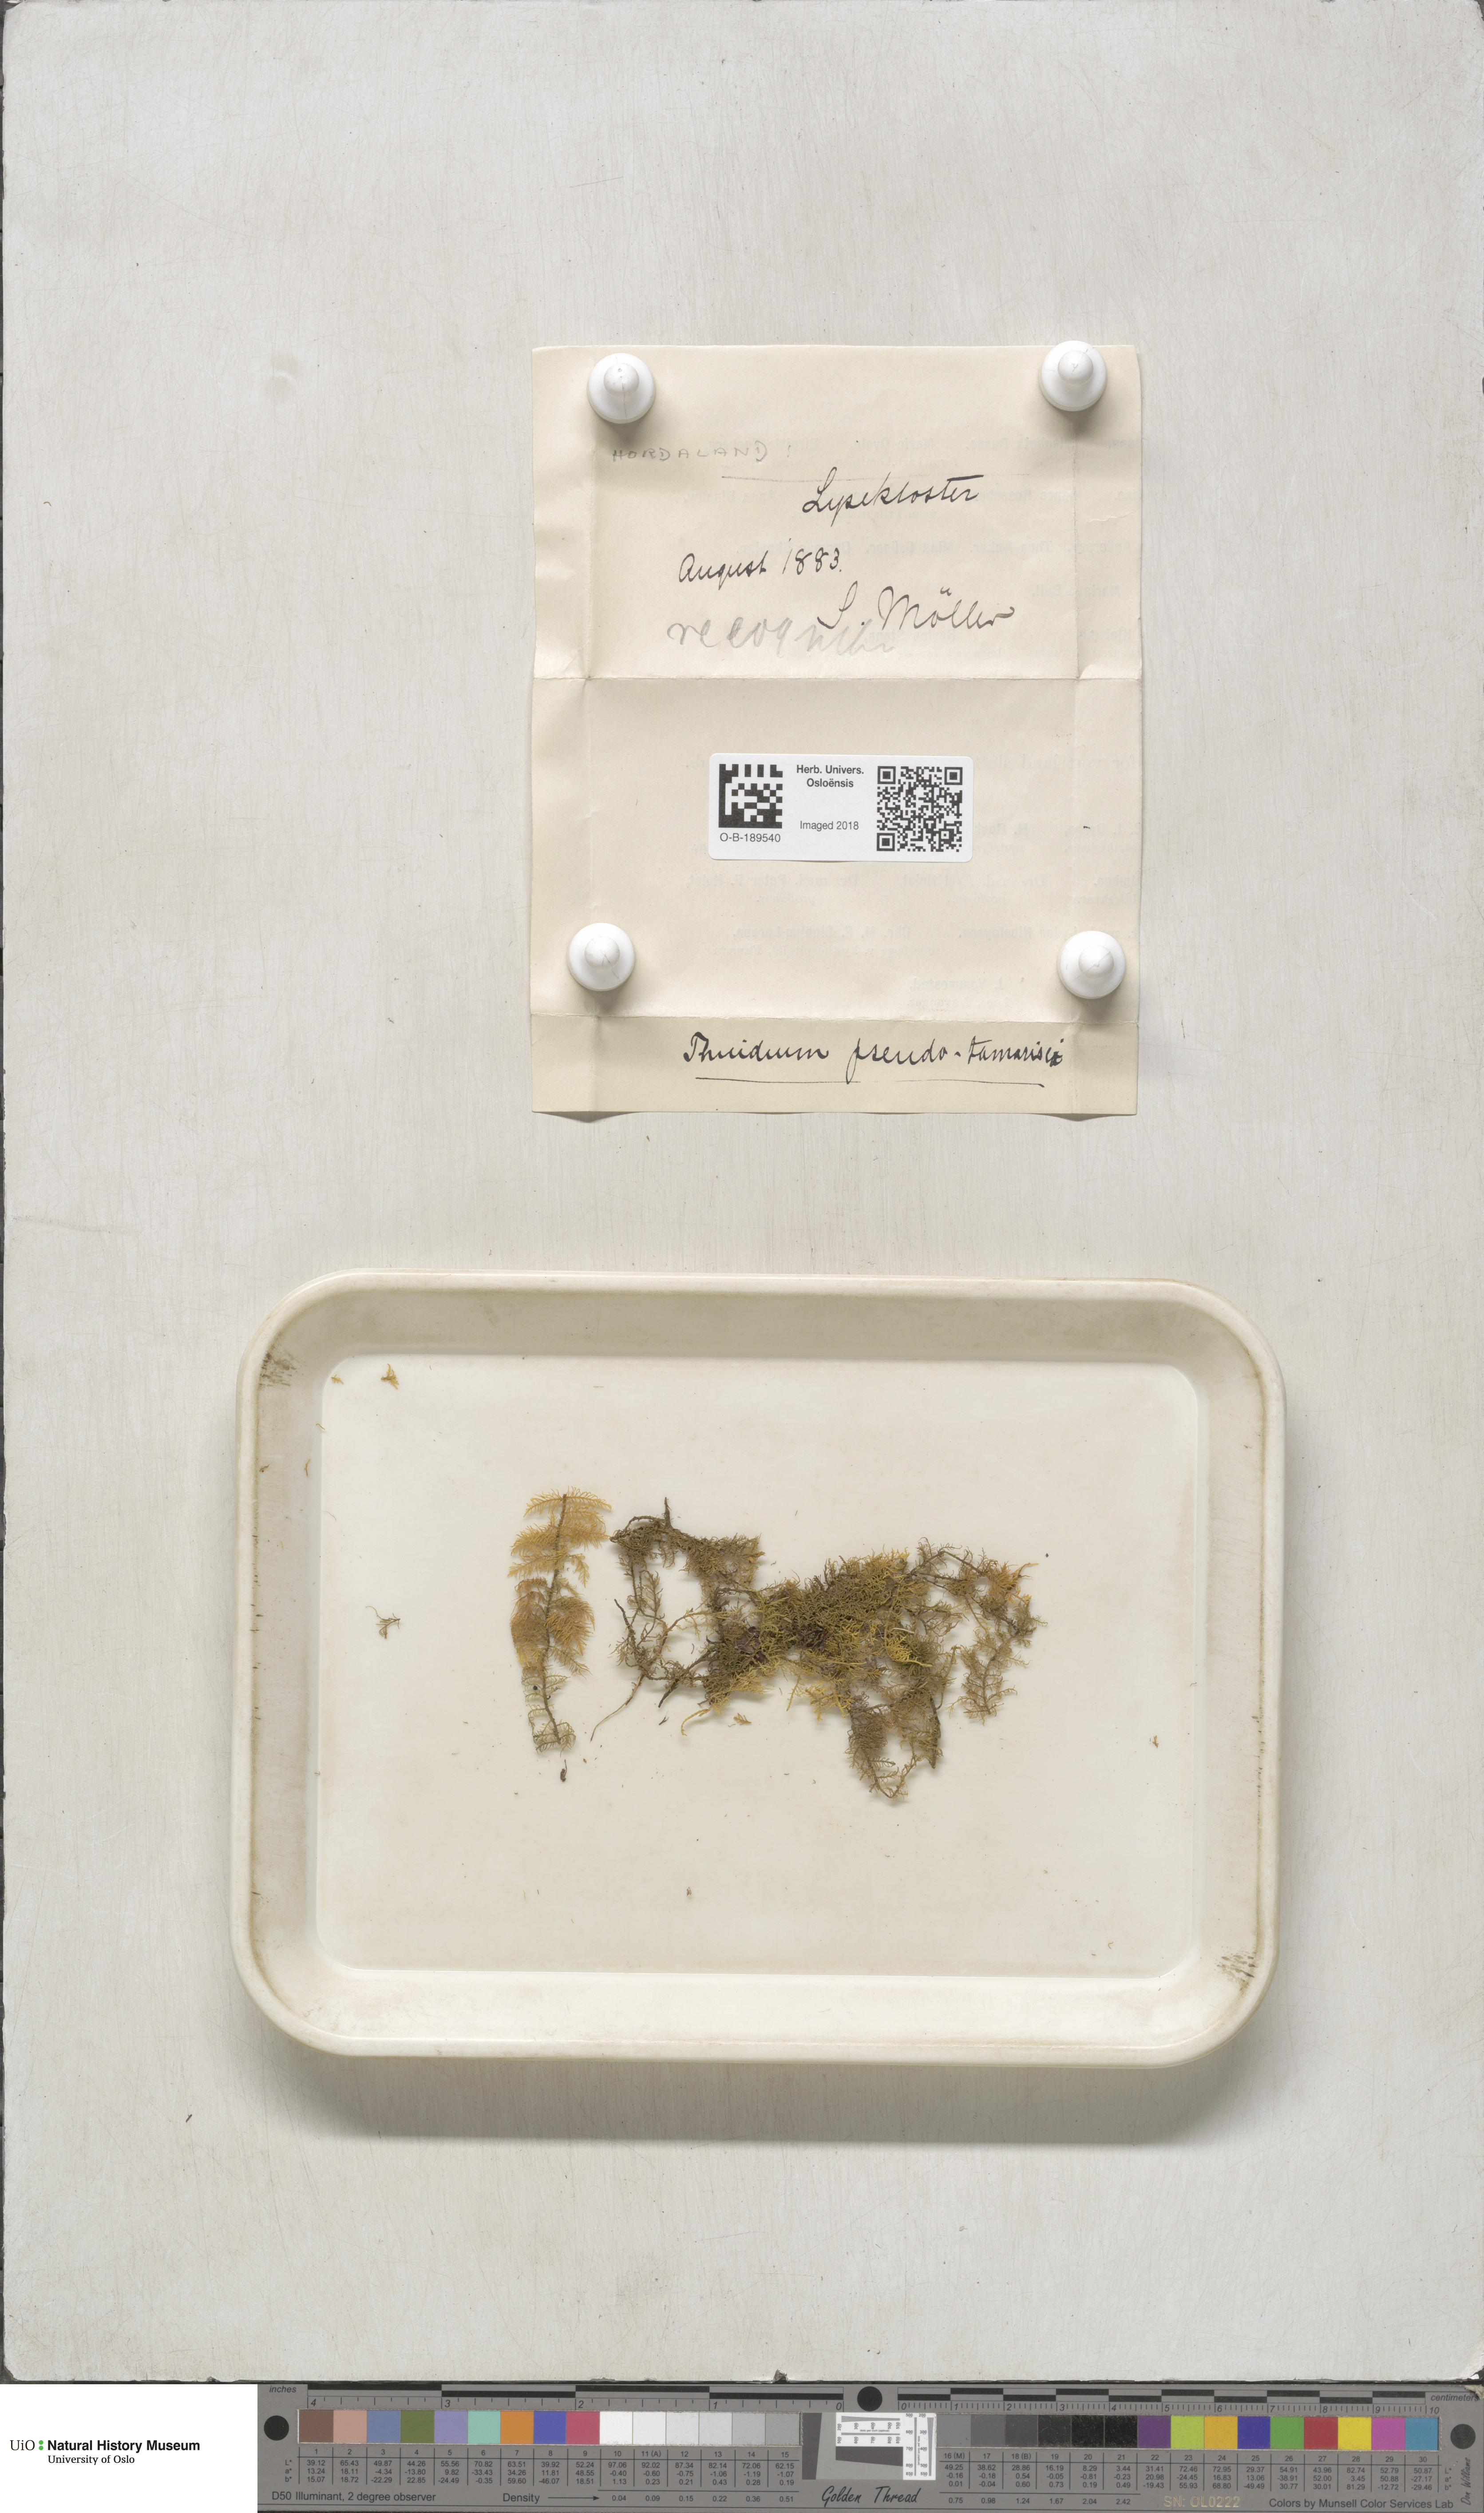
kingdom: Plantae
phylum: Bryophyta
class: Bryopsida
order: Hypnales
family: Thuidiaceae
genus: Thuidium
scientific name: Thuidium assimile
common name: Philibert's fern moss
